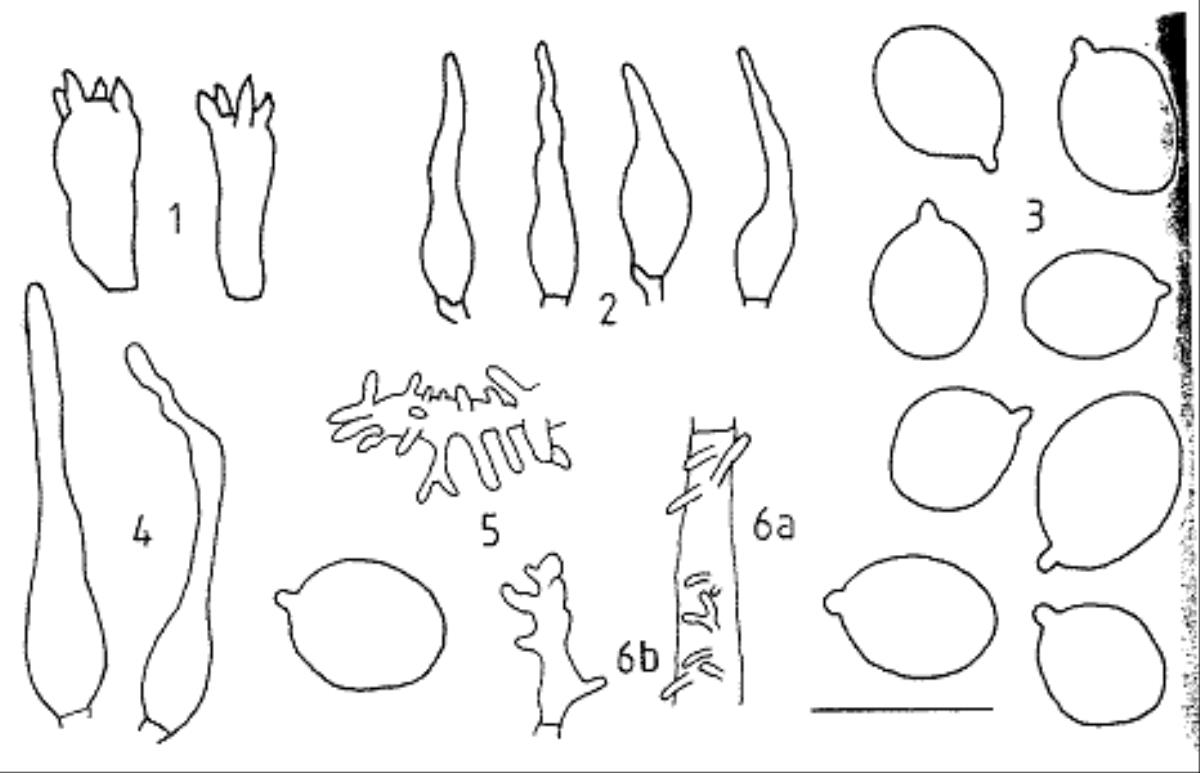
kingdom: Fungi
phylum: Basidiomycota
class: Agaricomycetes
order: Agaricales
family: Mycenaceae
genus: Mycena
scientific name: Mycena morris-jonesii
